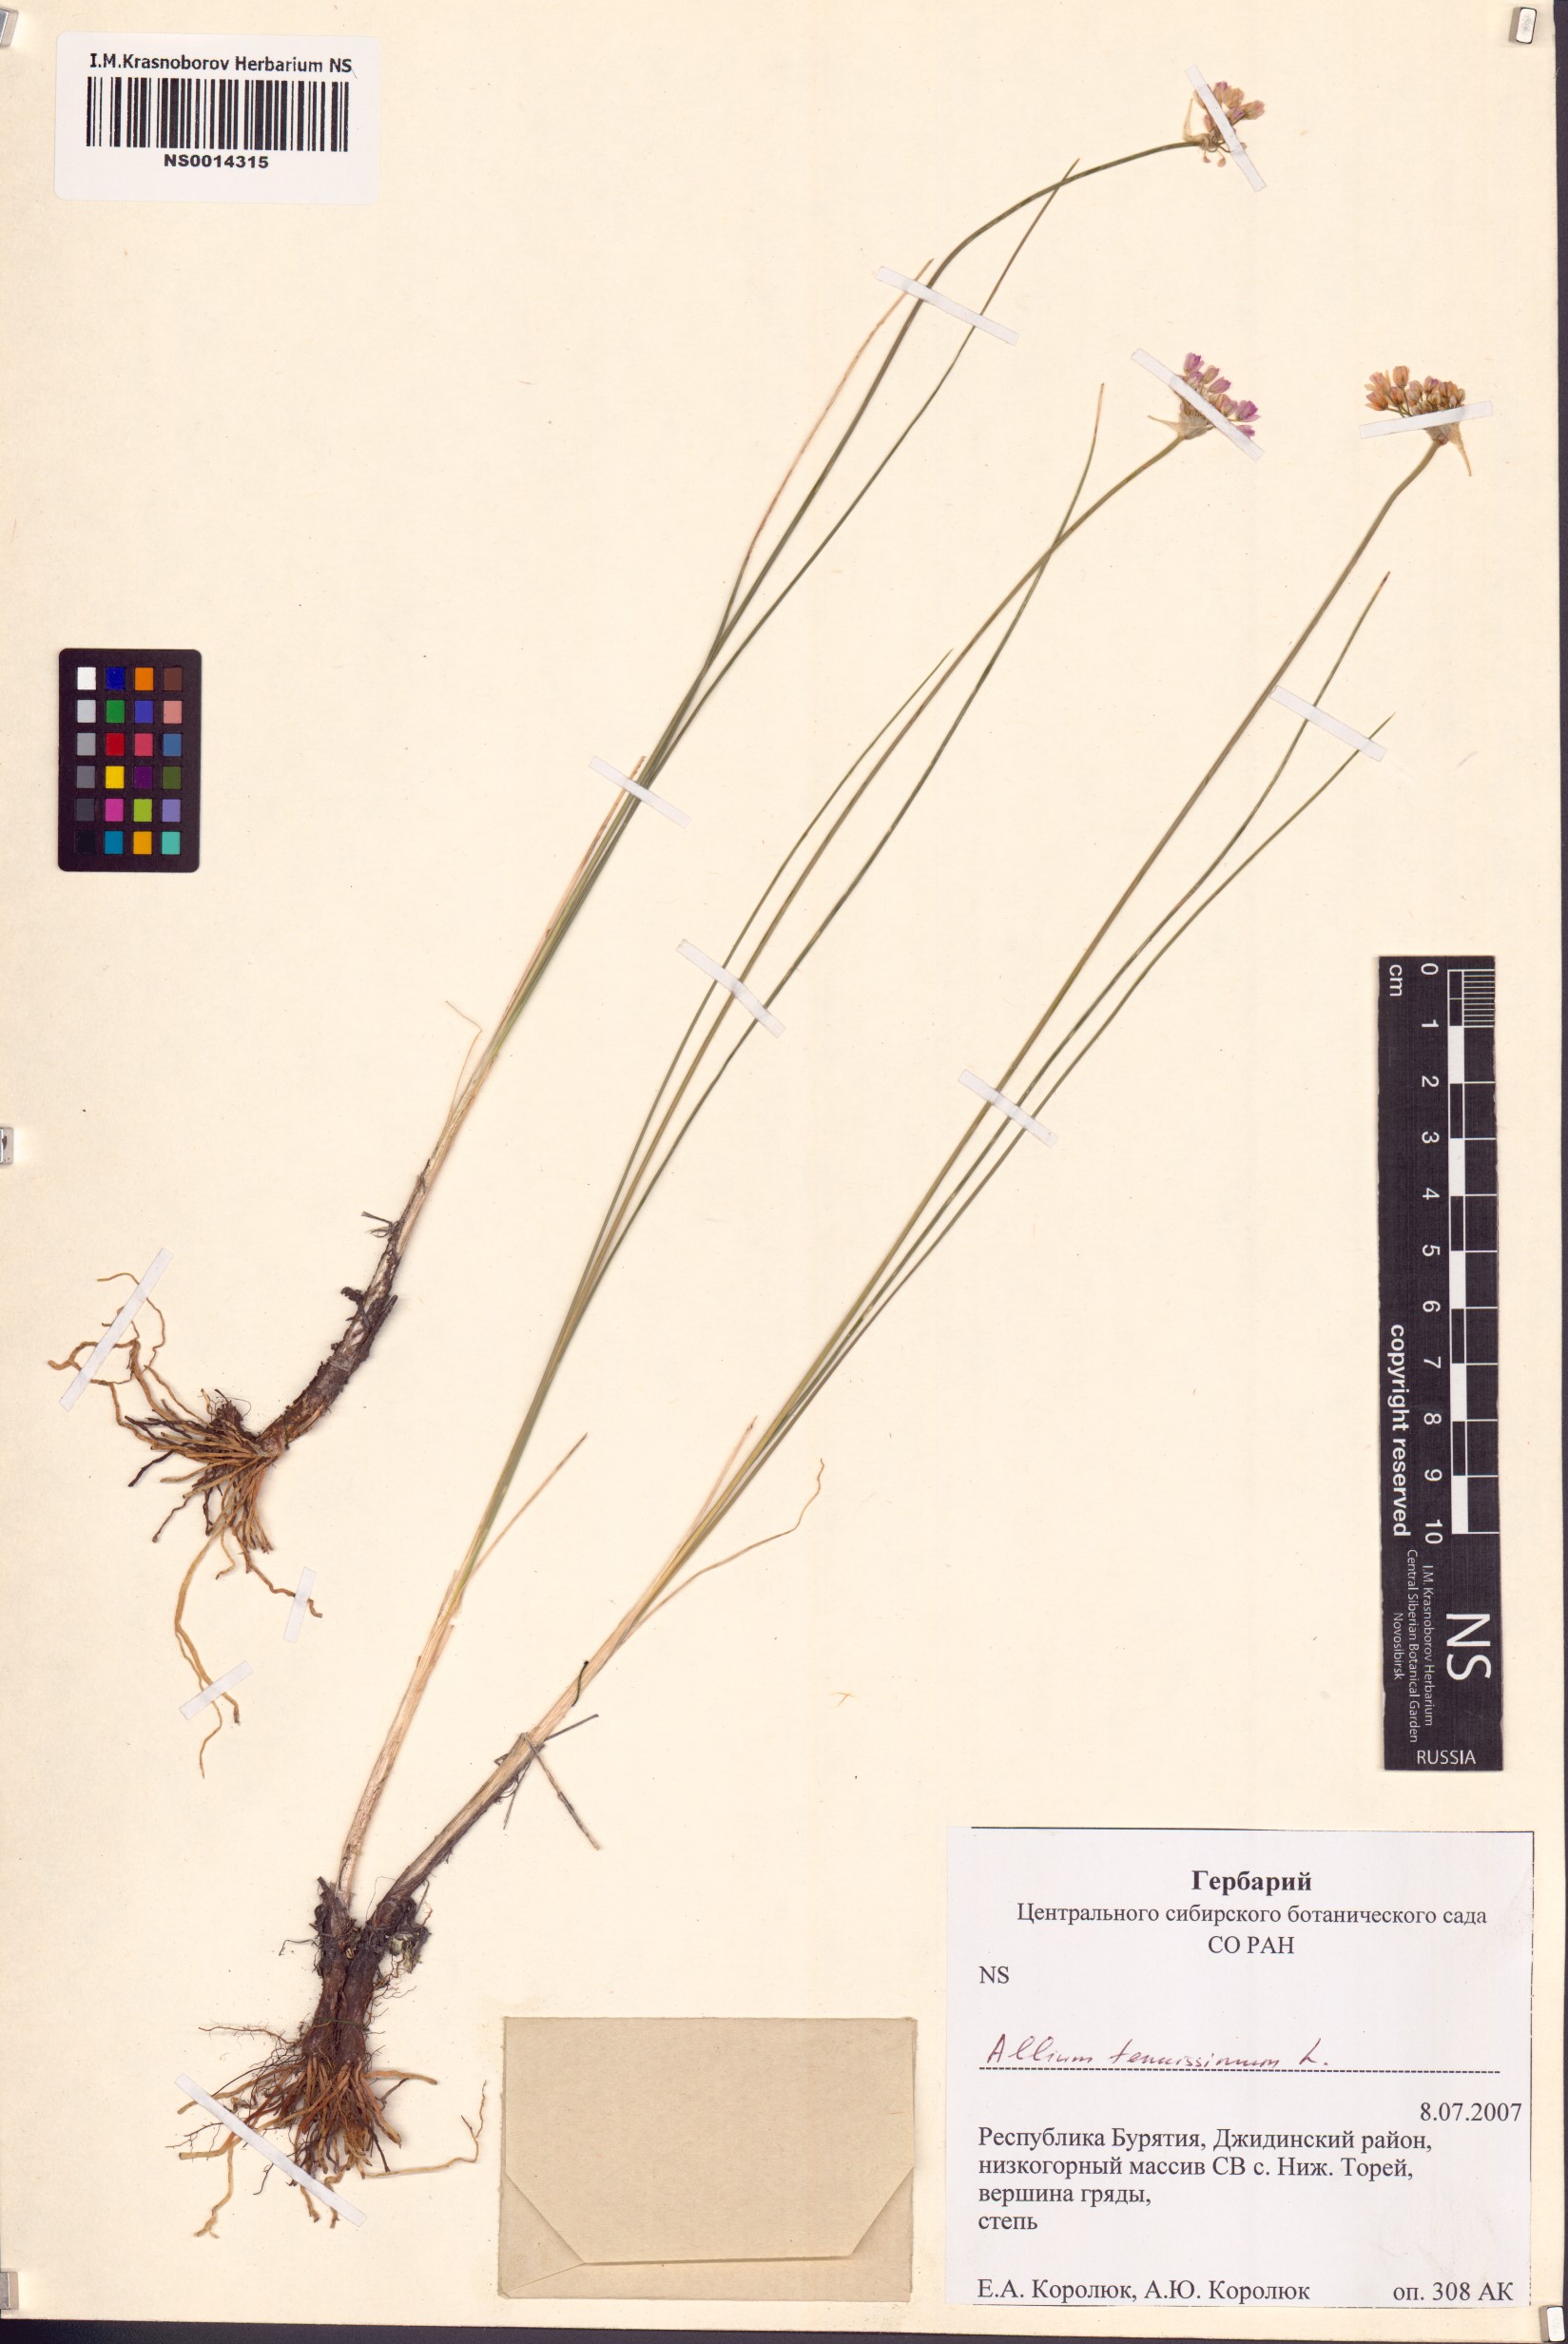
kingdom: Plantae
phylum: Tracheophyta
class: Liliopsida
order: Asparagales
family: Amaryllidaceae
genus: Allium
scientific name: Allium tenuissimum
